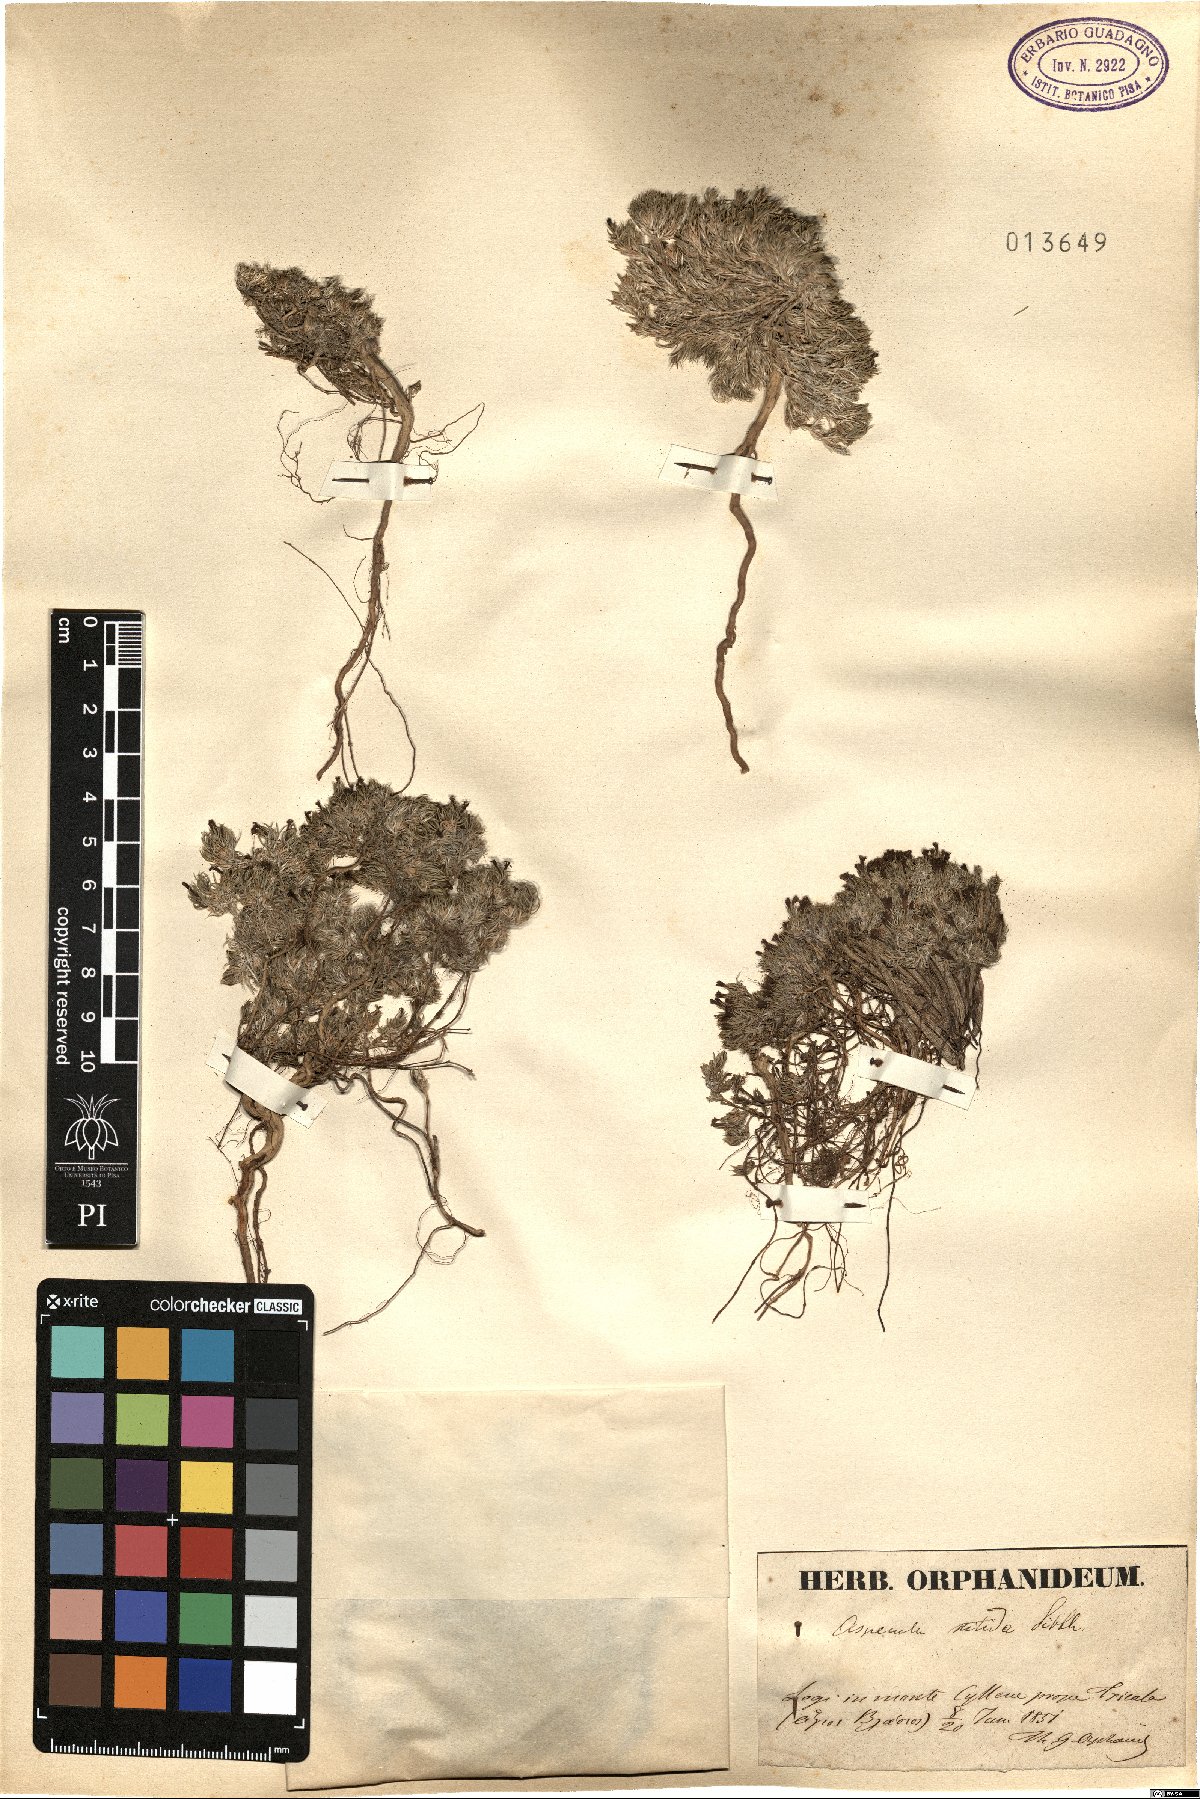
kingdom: Plantae
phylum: Tracheophyta
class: Magnoliopsida
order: Gentianales
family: Rubiaceae
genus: Cynanchica
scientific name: Cynanchica nitida
